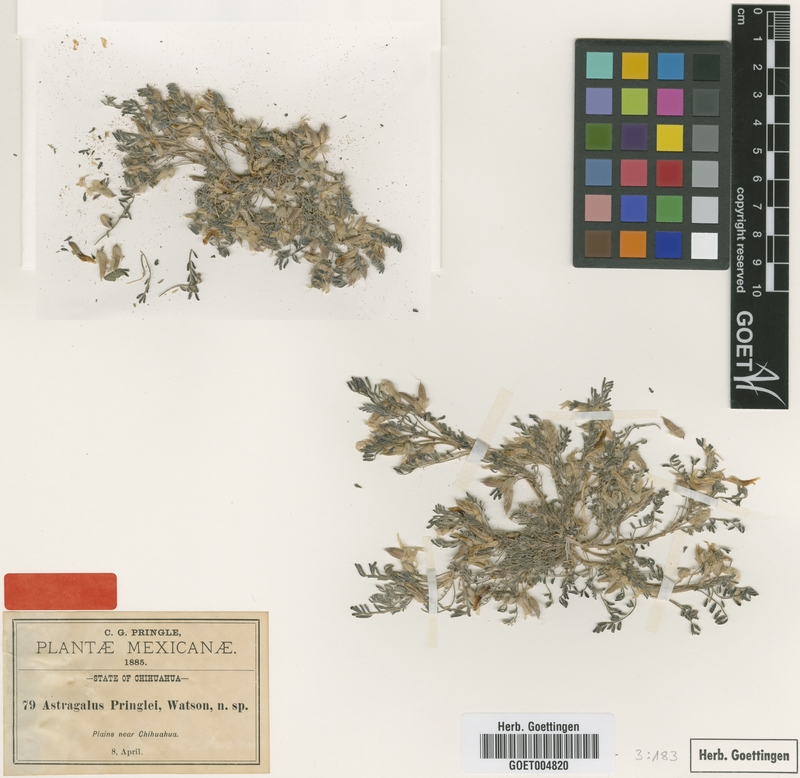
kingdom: Plantae
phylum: Tracheophyta
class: Magnoliopsida
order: Fabales
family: Fabaceae
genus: Astragalus
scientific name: Astragalus pringlei
